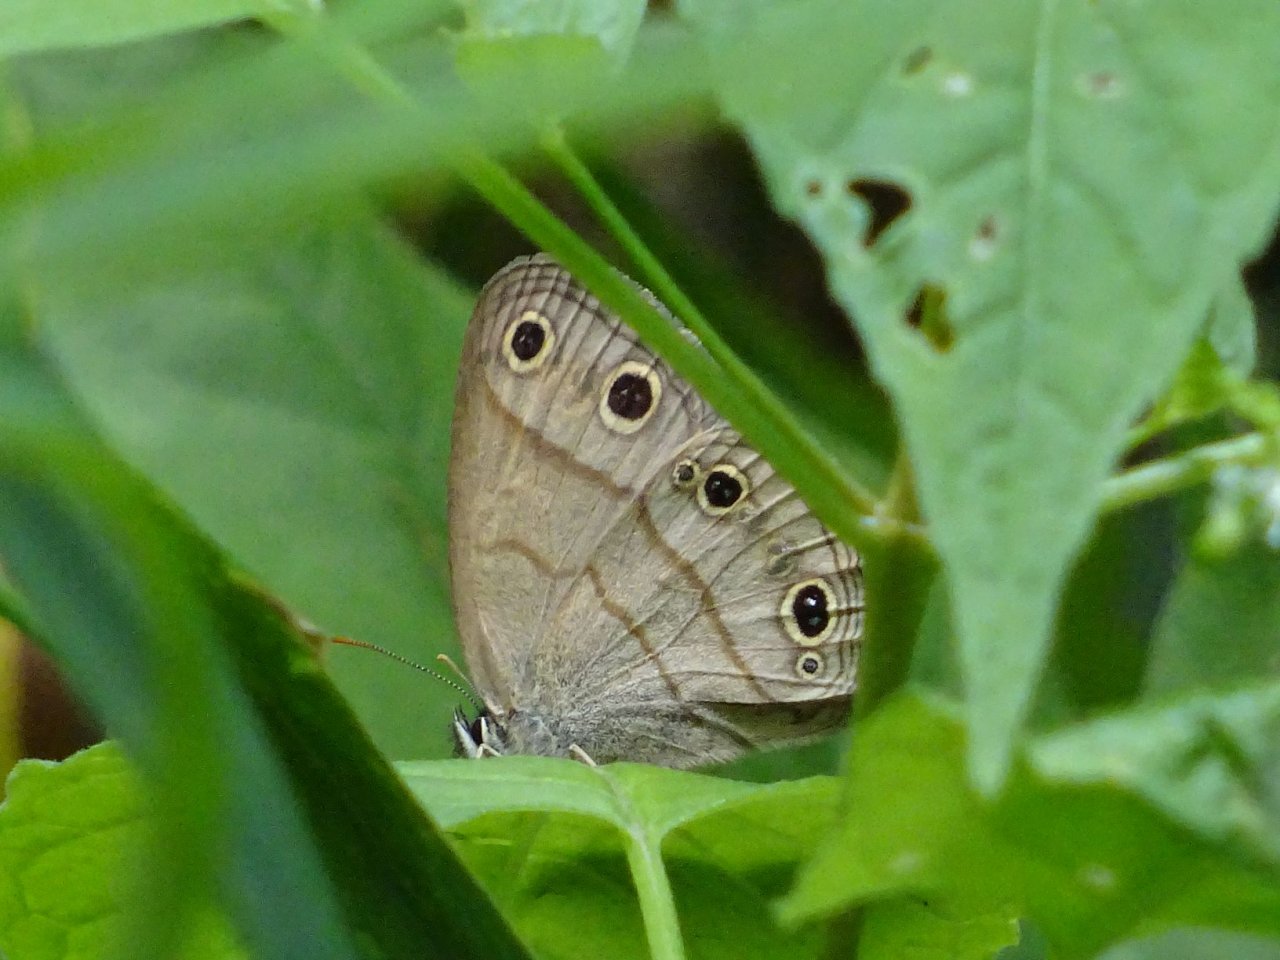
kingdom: Animalia
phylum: Arthropoda
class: Insecta
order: Lepidoptera
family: Nymphalidae
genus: Euptychia
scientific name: Euptychia cymela
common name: Little Wood Satyr
